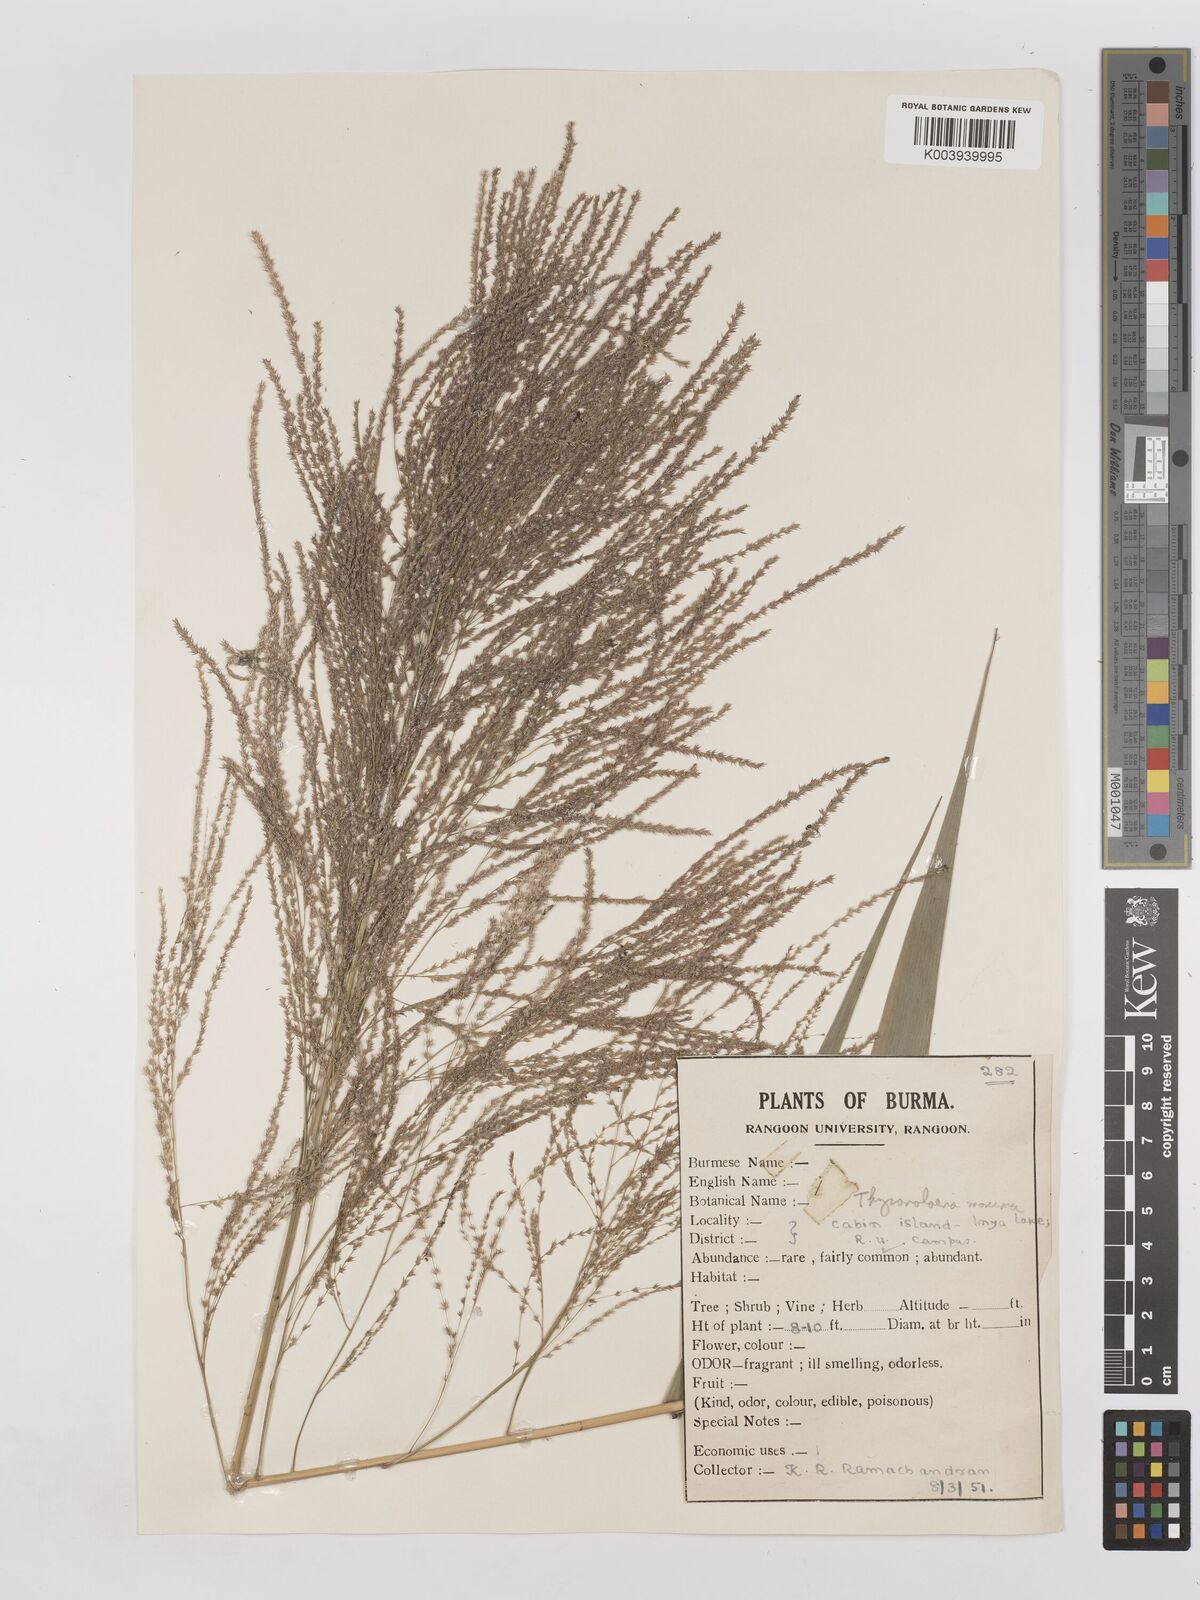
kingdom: Plantae
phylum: Tracheophyta
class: Liliopsida
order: Poales
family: Poaceae
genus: Thysanolaena
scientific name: Thysanolaena latifolia
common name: Tiger grass
